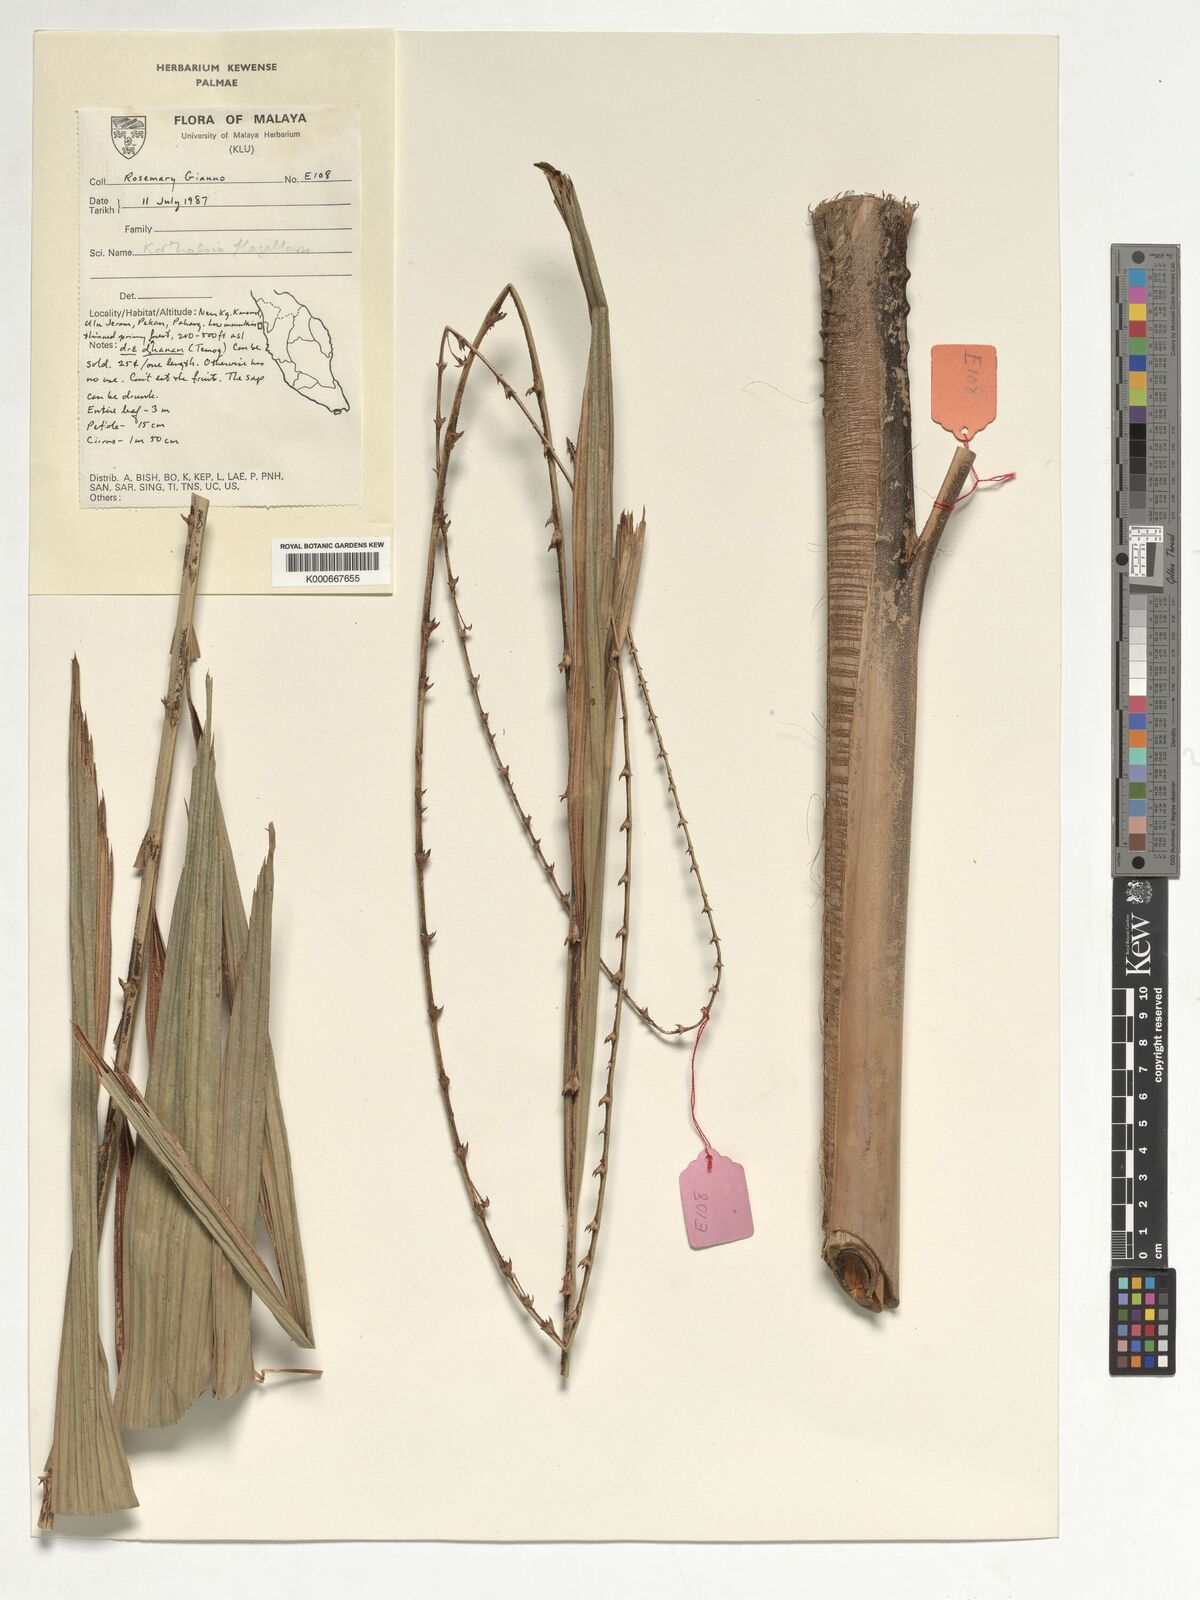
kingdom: Plantae
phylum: Tracheophyta
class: Liliopsida
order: Arecales
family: Arecaceae
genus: Korthalsia
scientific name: Korthalsia flagellaris
